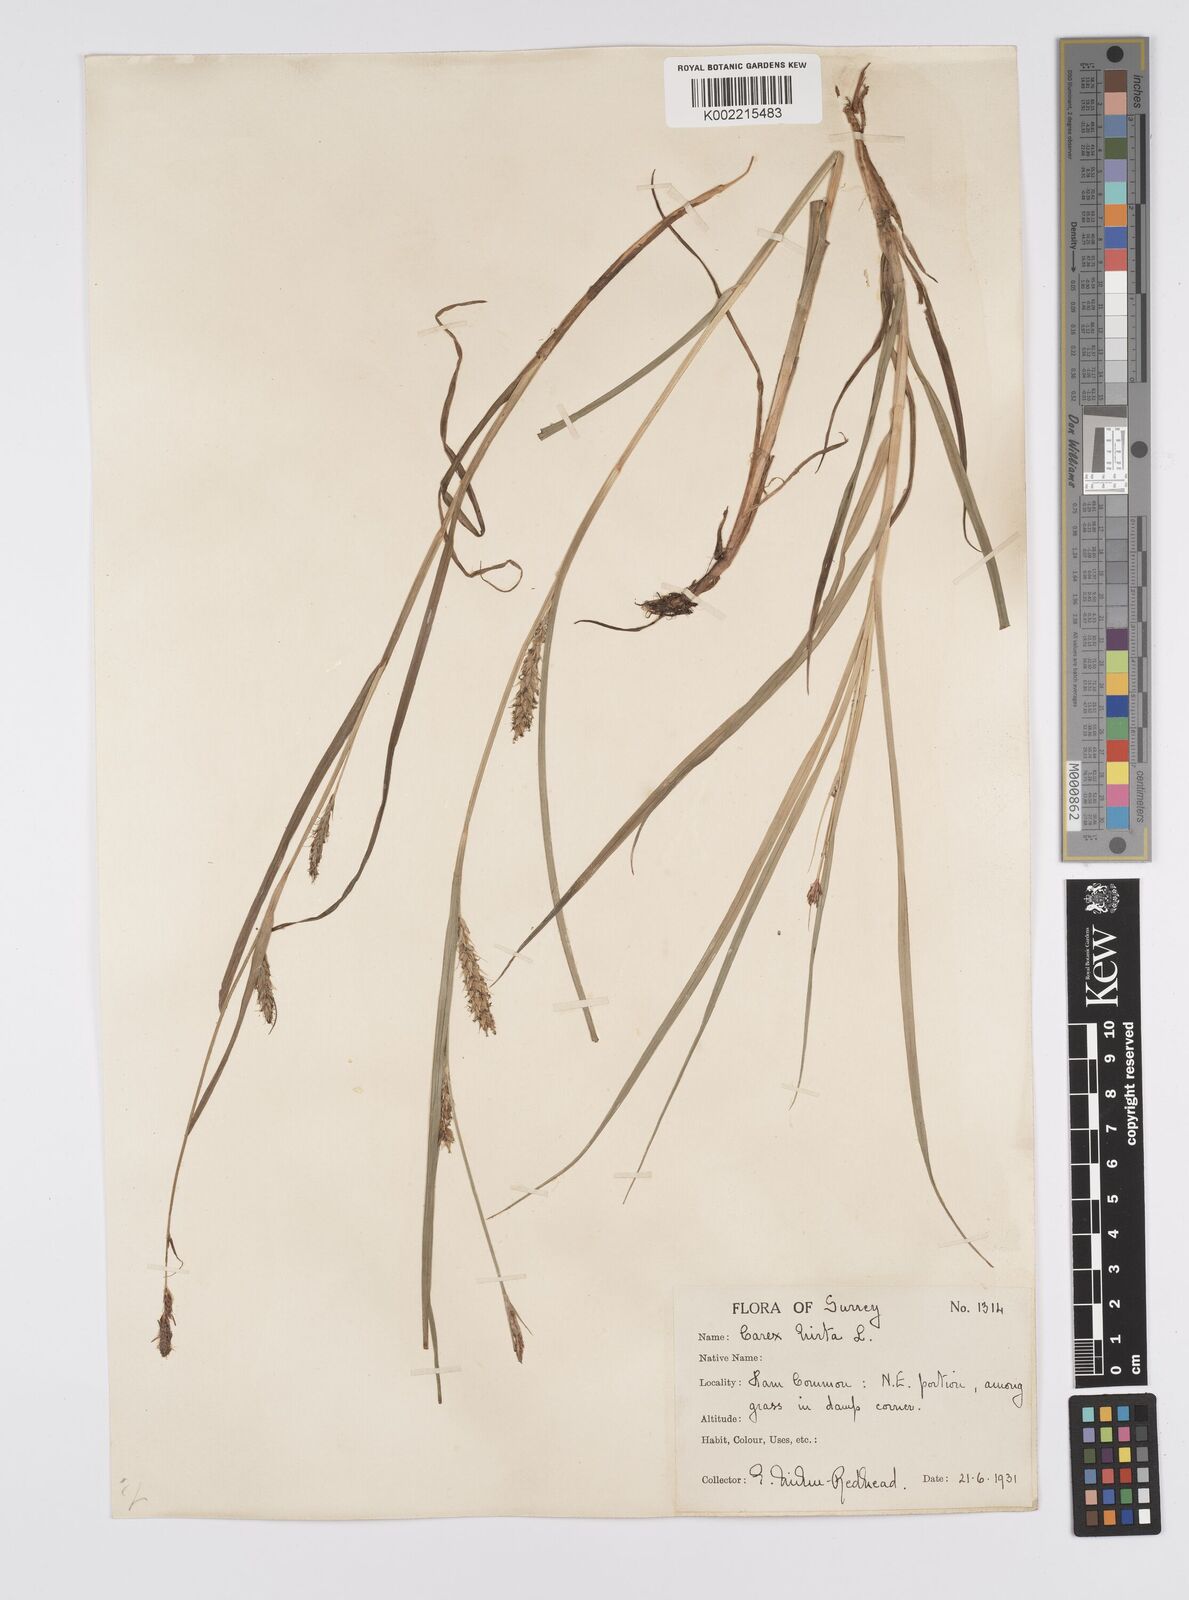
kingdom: Plantae
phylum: Tracheophyta
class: Liliopsida
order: Poales
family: Cyperaceae
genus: Carex
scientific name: Carex hirta
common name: Hairy sedge
